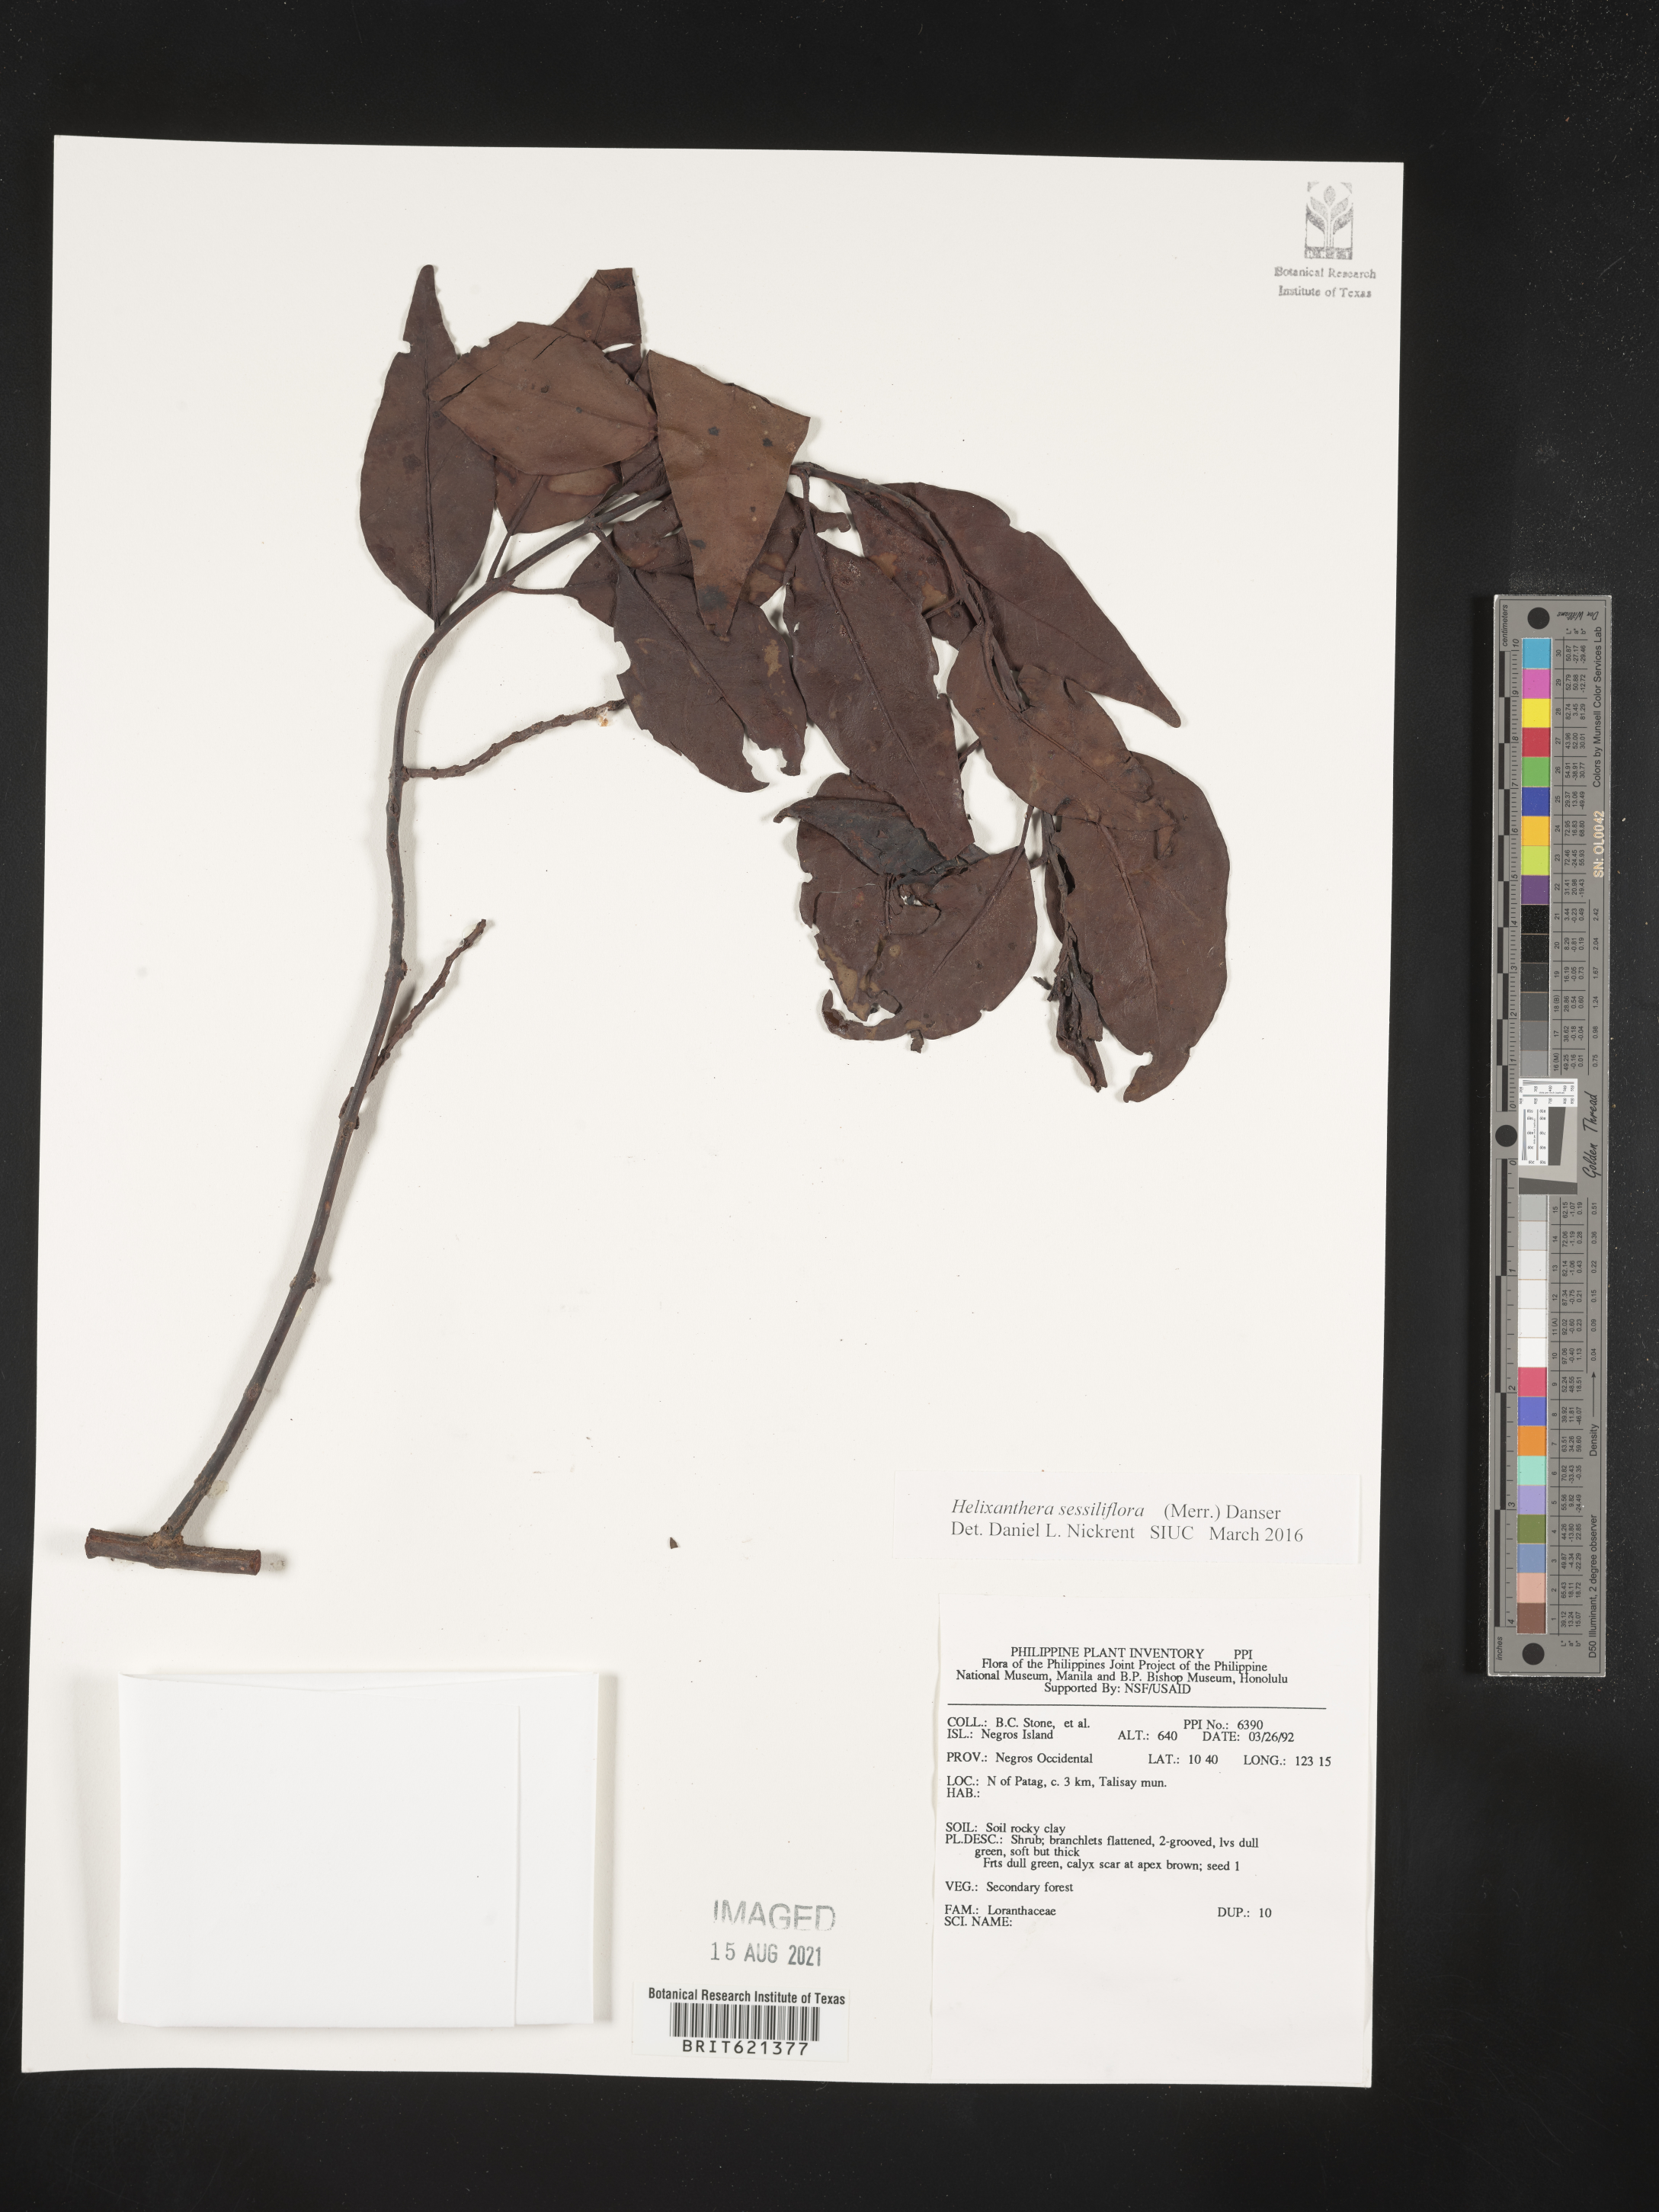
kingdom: Plantae
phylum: Tracheophyta
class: Magnoliopsida
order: Santalales
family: Loranthaceae
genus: Helixanthera
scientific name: Helixanthera sessiliflora
